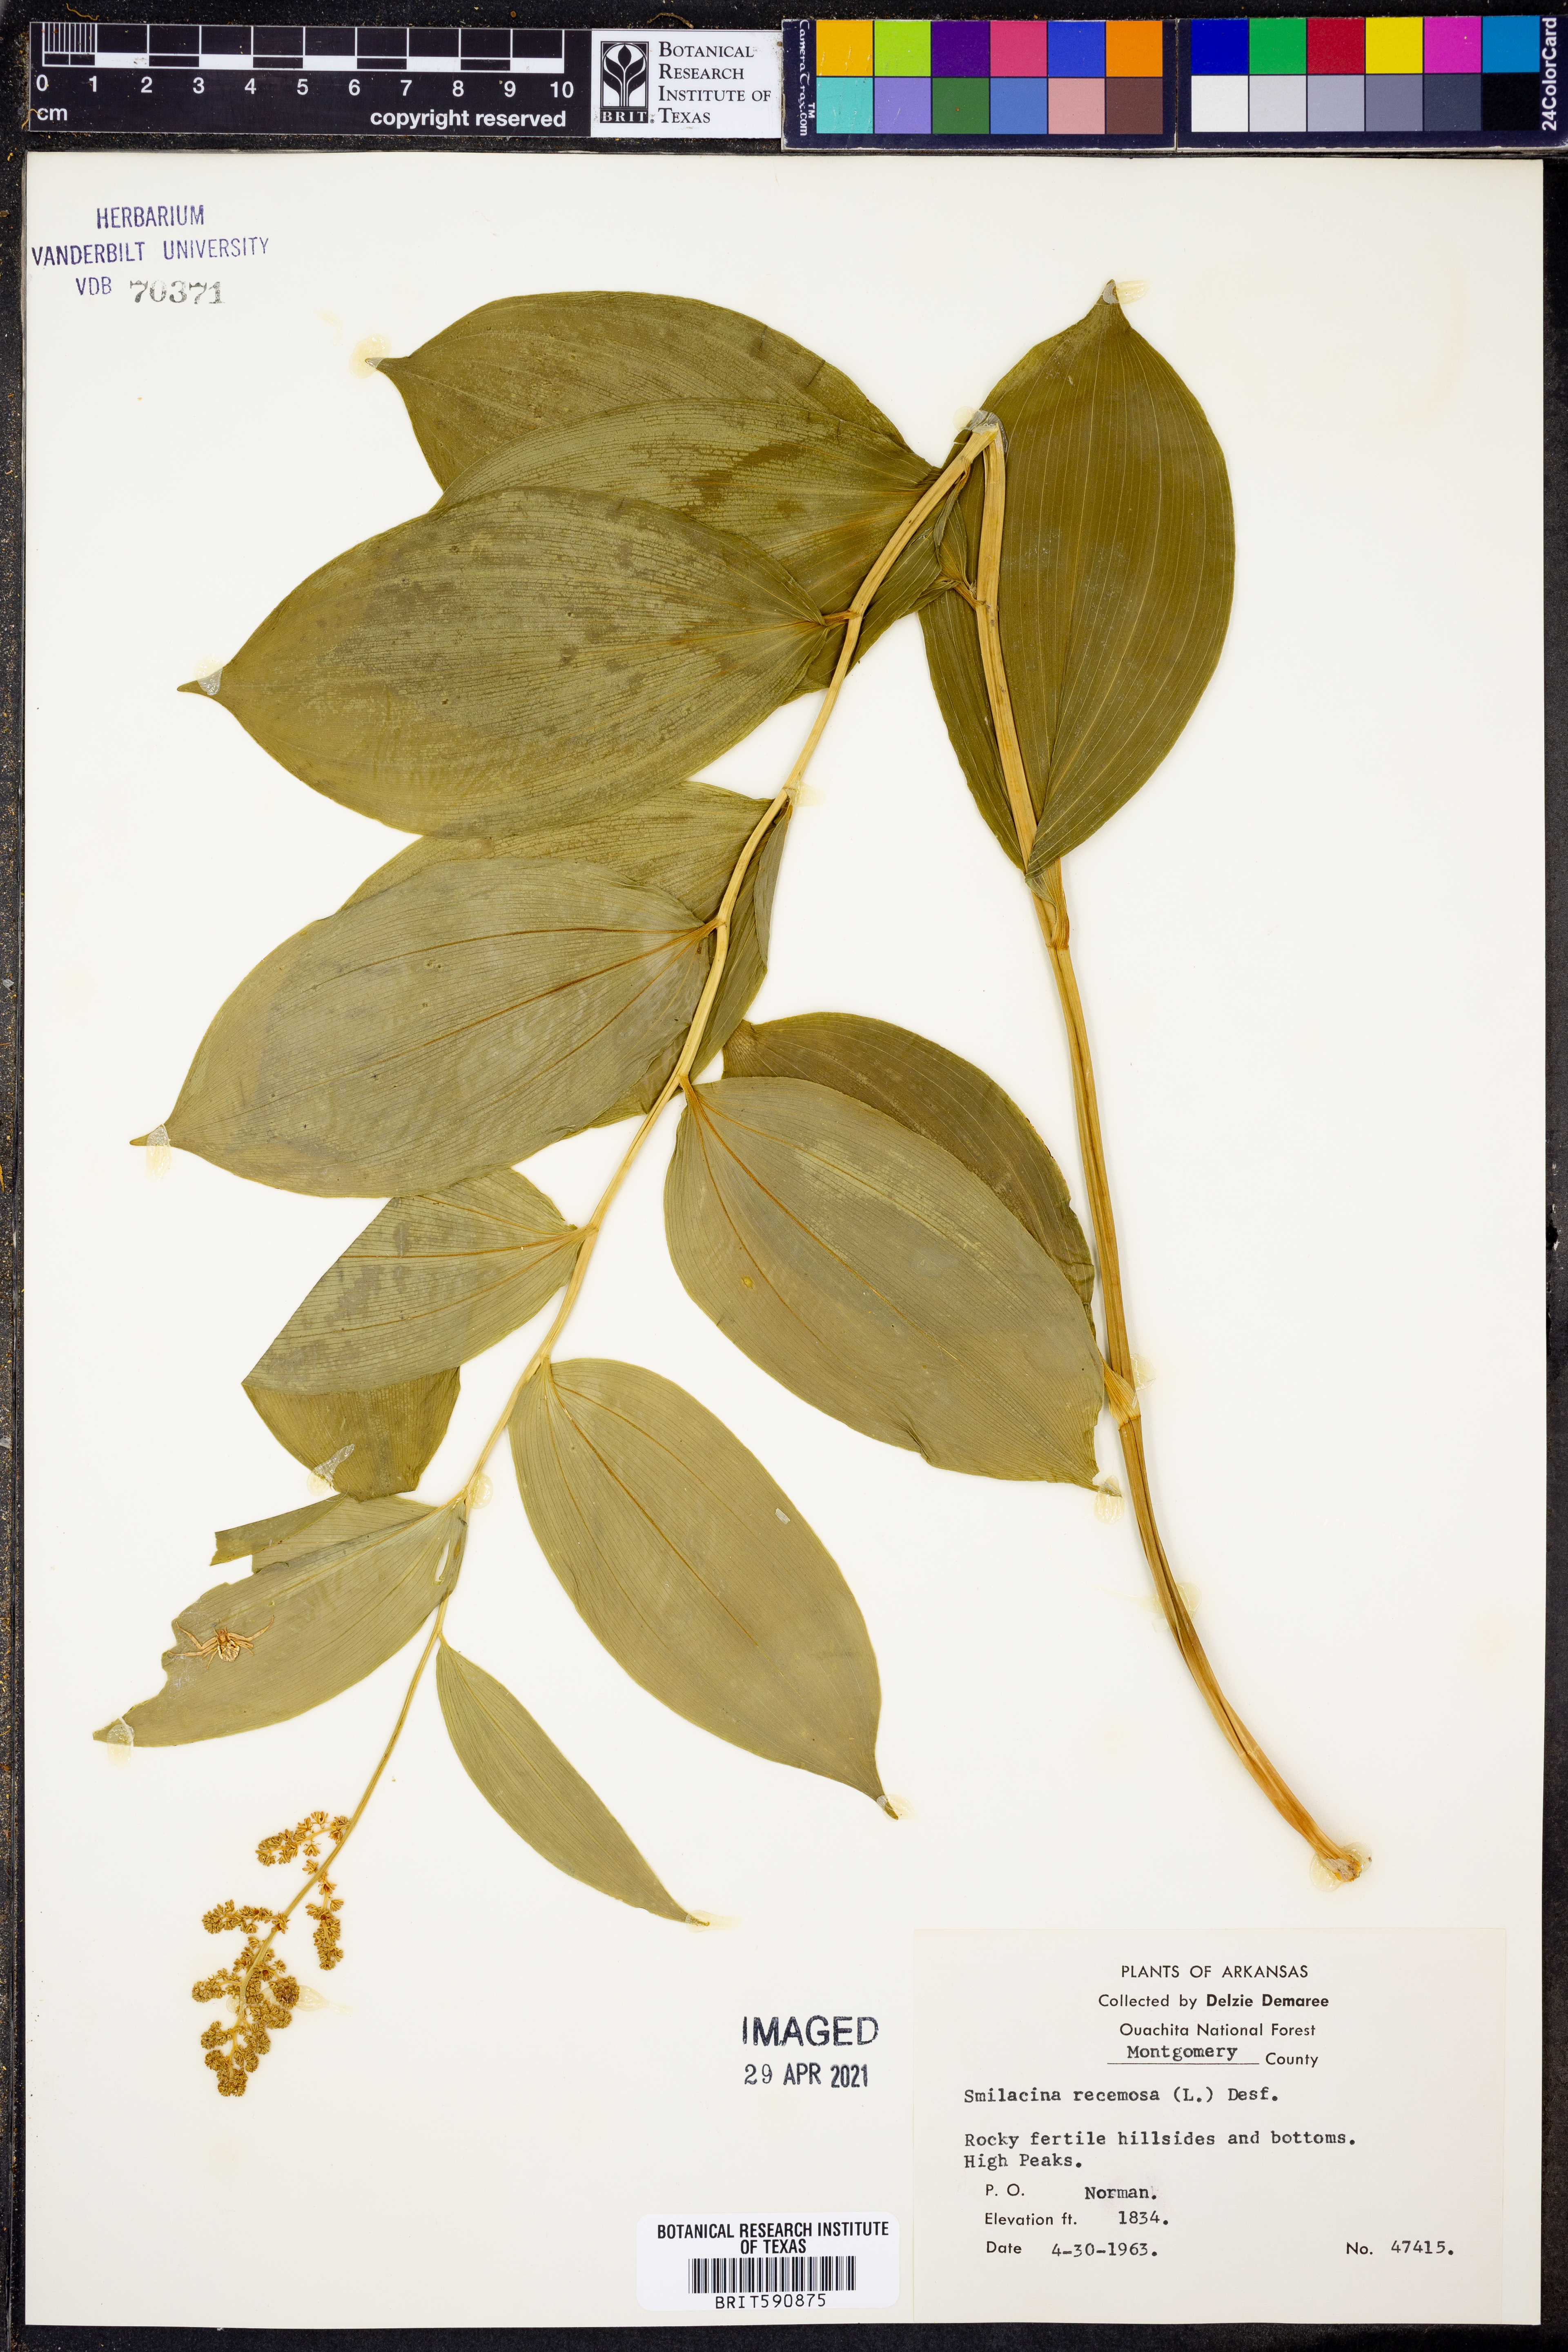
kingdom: Plantae
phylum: Tracheophyta
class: Liliopsida
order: Asparagales
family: Asparagaceae
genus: Maianthemum
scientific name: Maianthemum racemosum
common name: False spikenard
